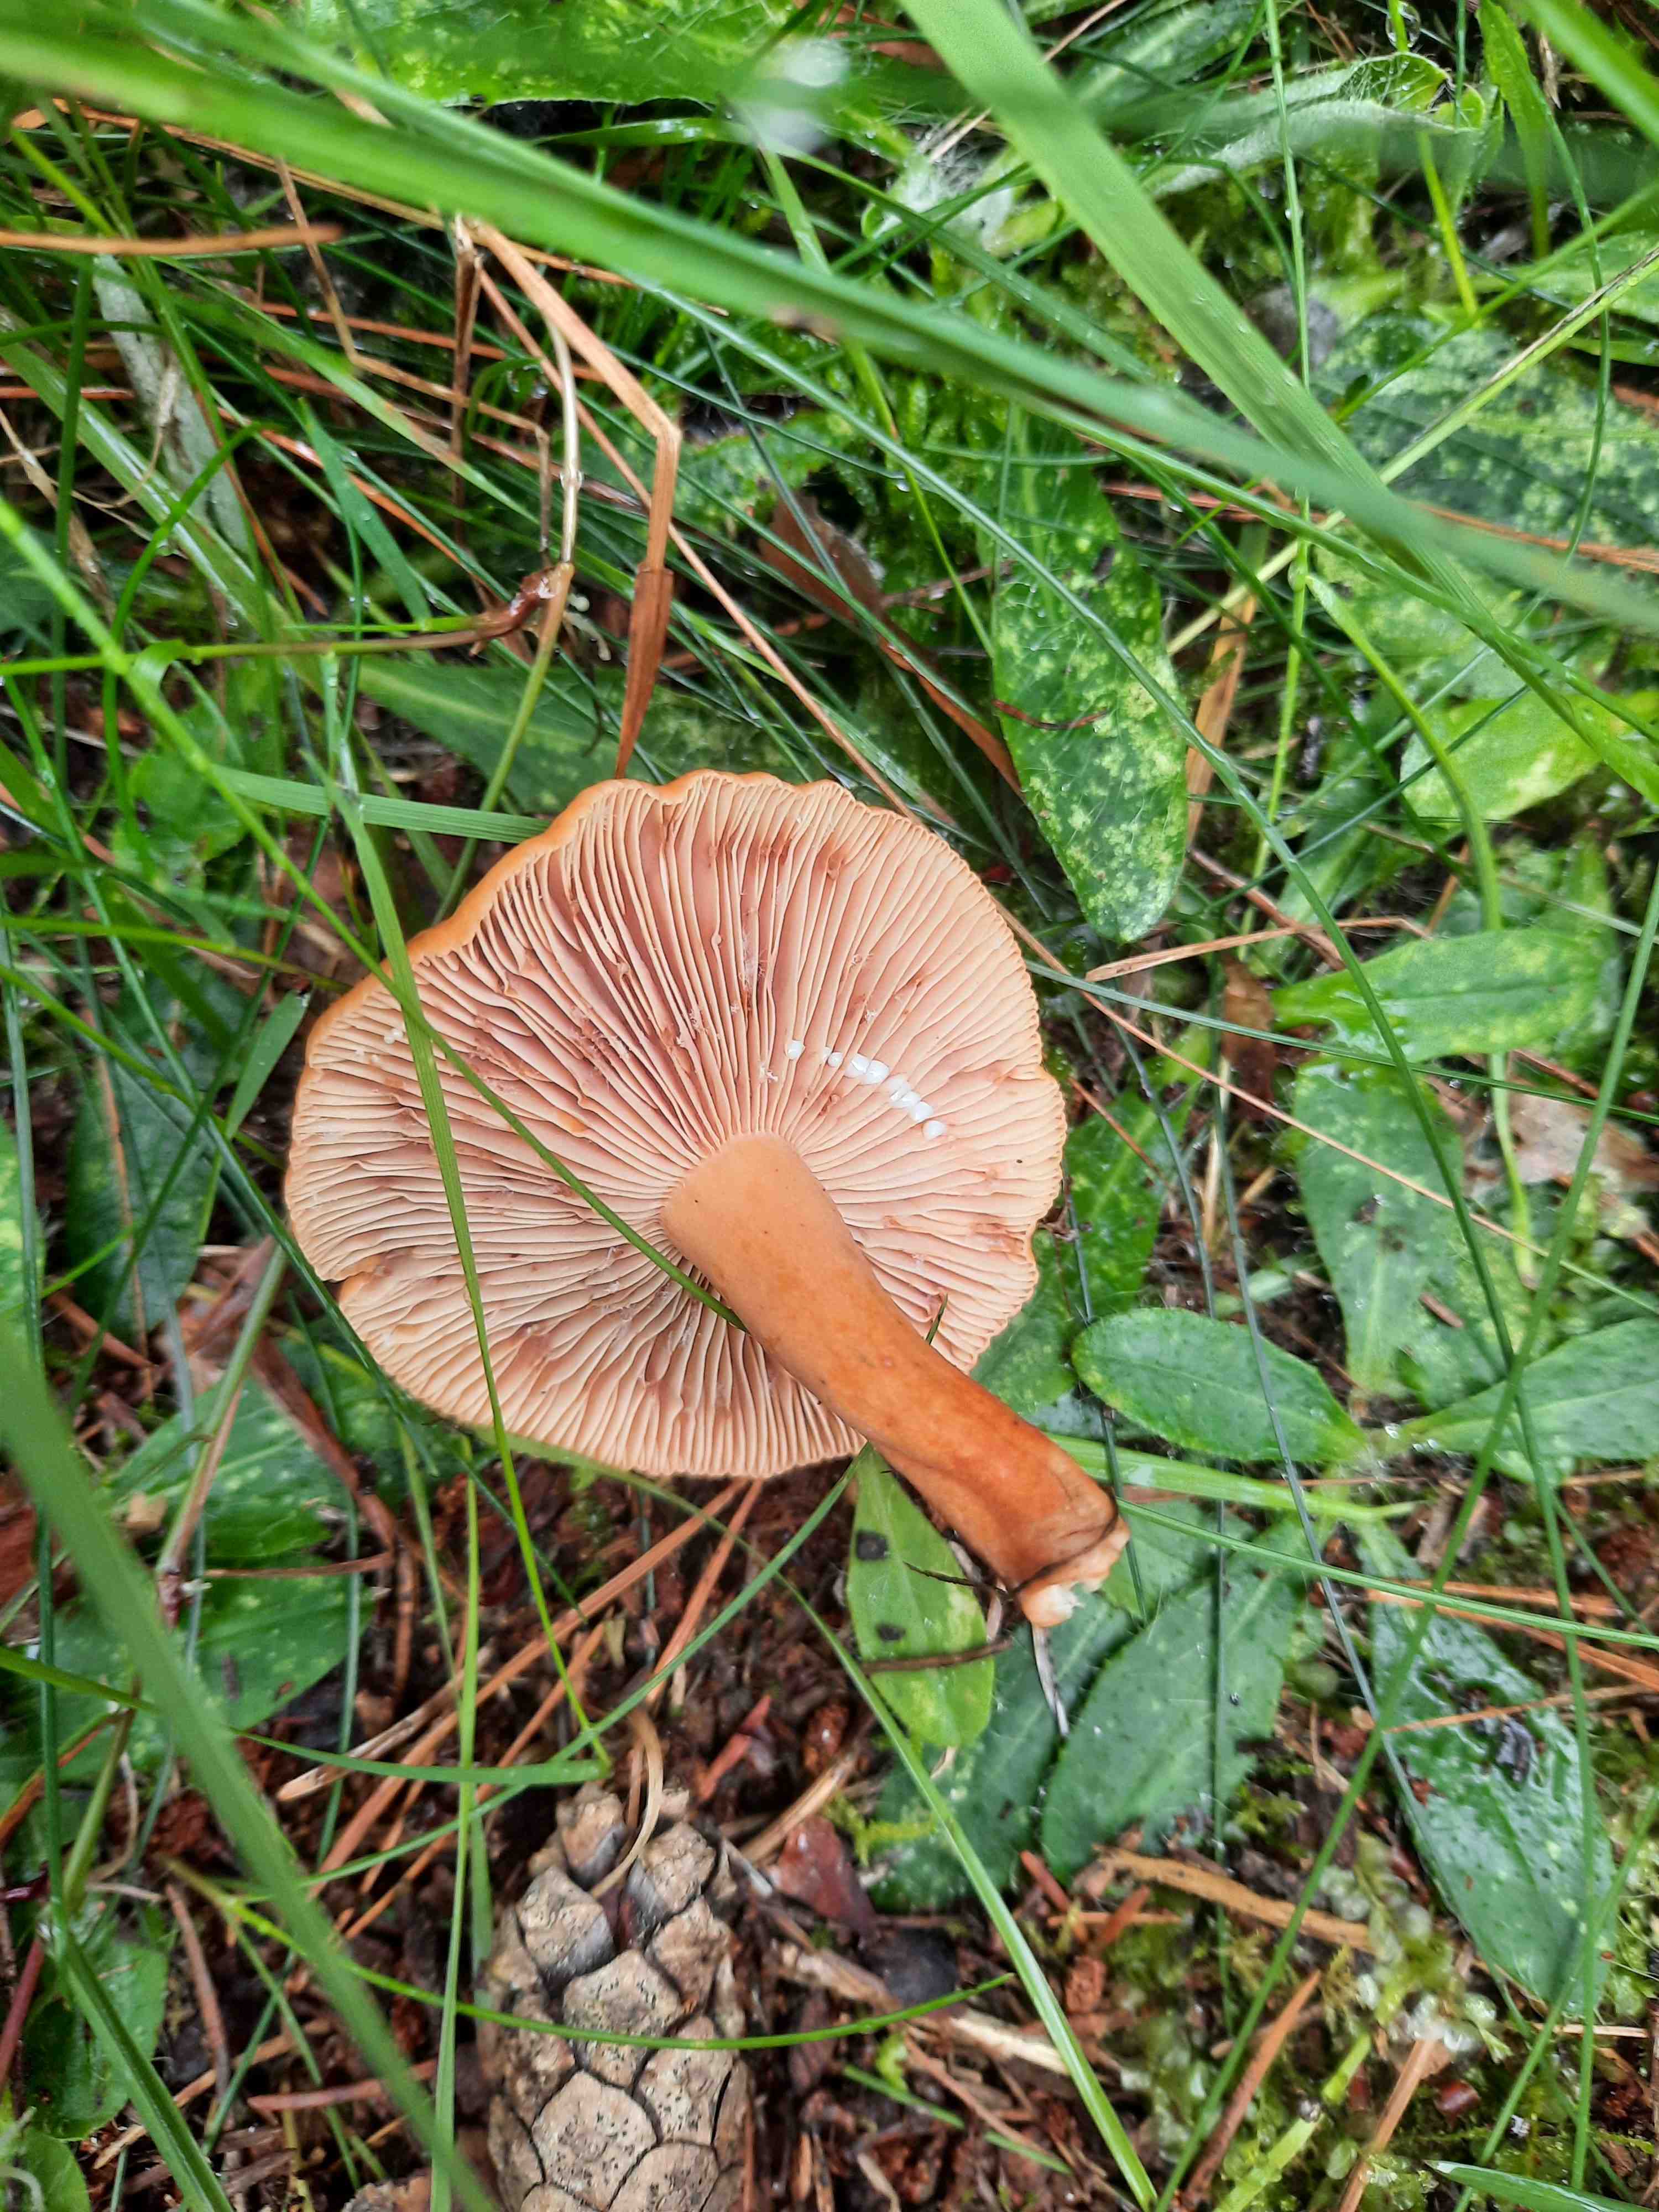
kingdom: Fungi
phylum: Basidiomycota
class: Agaricomycetes
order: Russulales
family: Russulaceae
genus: Lactarius
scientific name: Lactarius
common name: mælkehat
